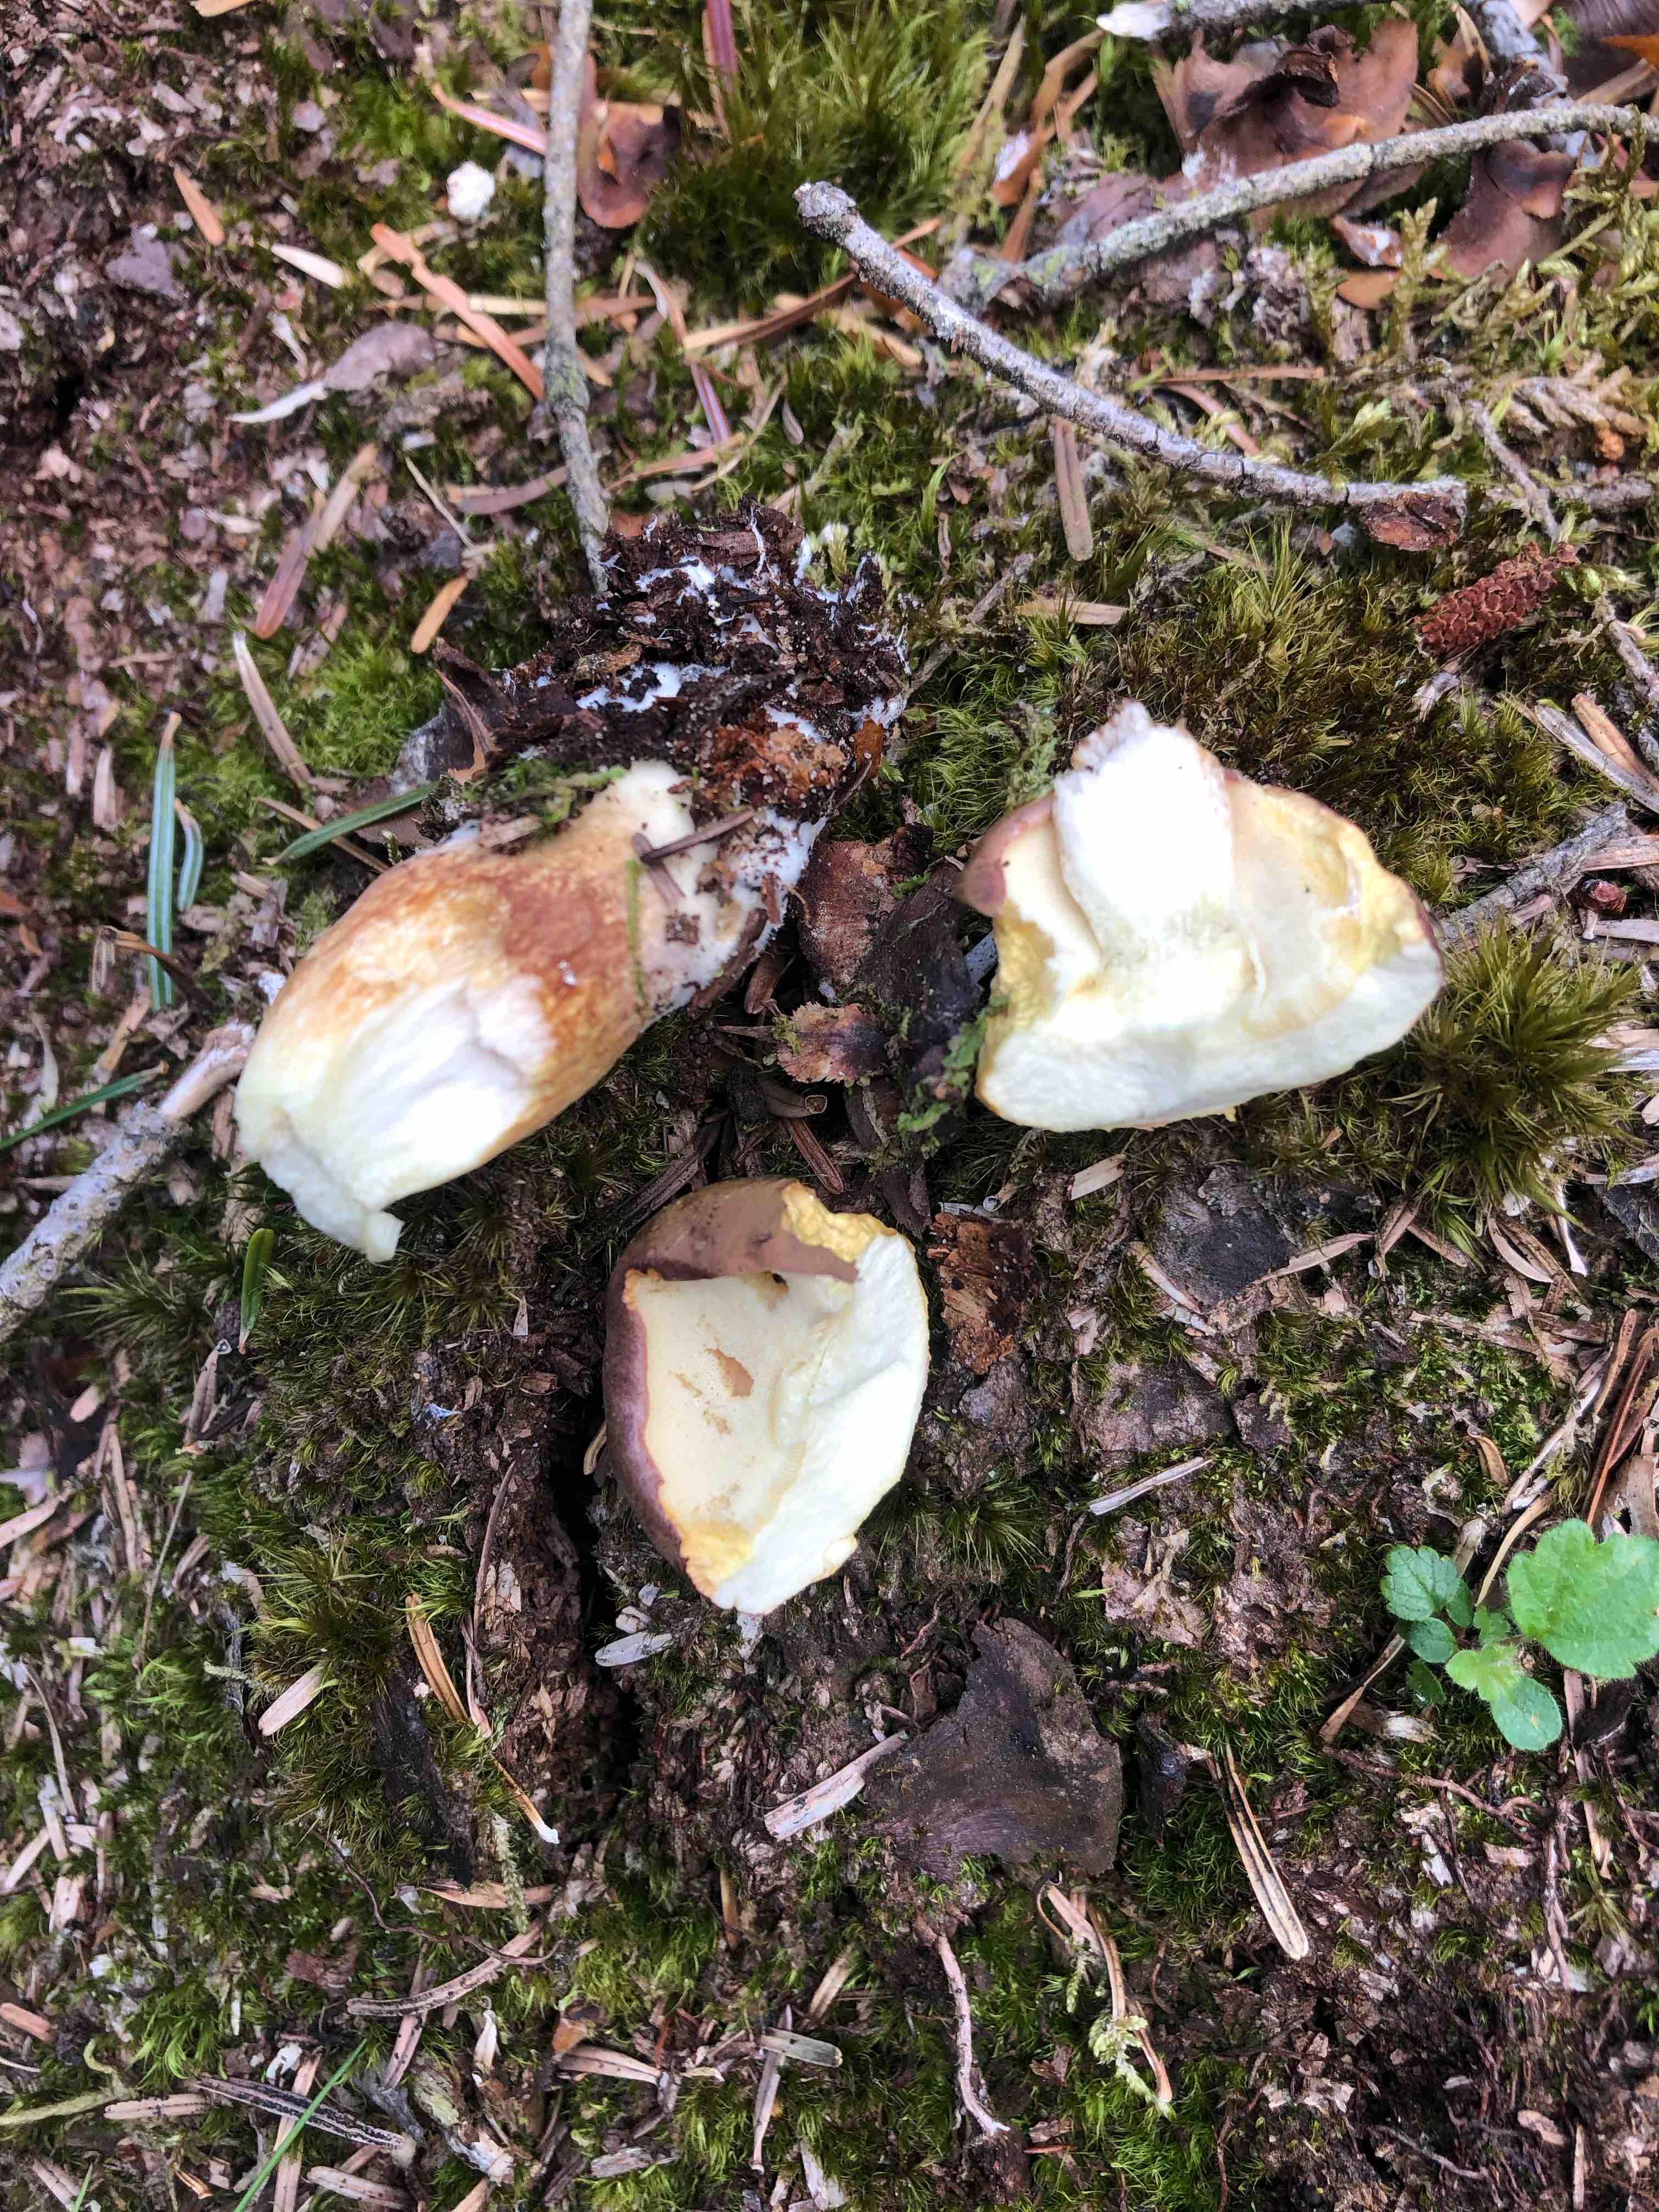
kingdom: Fungi
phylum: Basidiomycota
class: Agaricomycetes
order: Boletales
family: Boletaceae
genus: Imleria
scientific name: Imleria badia
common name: brunstokket rørhat
